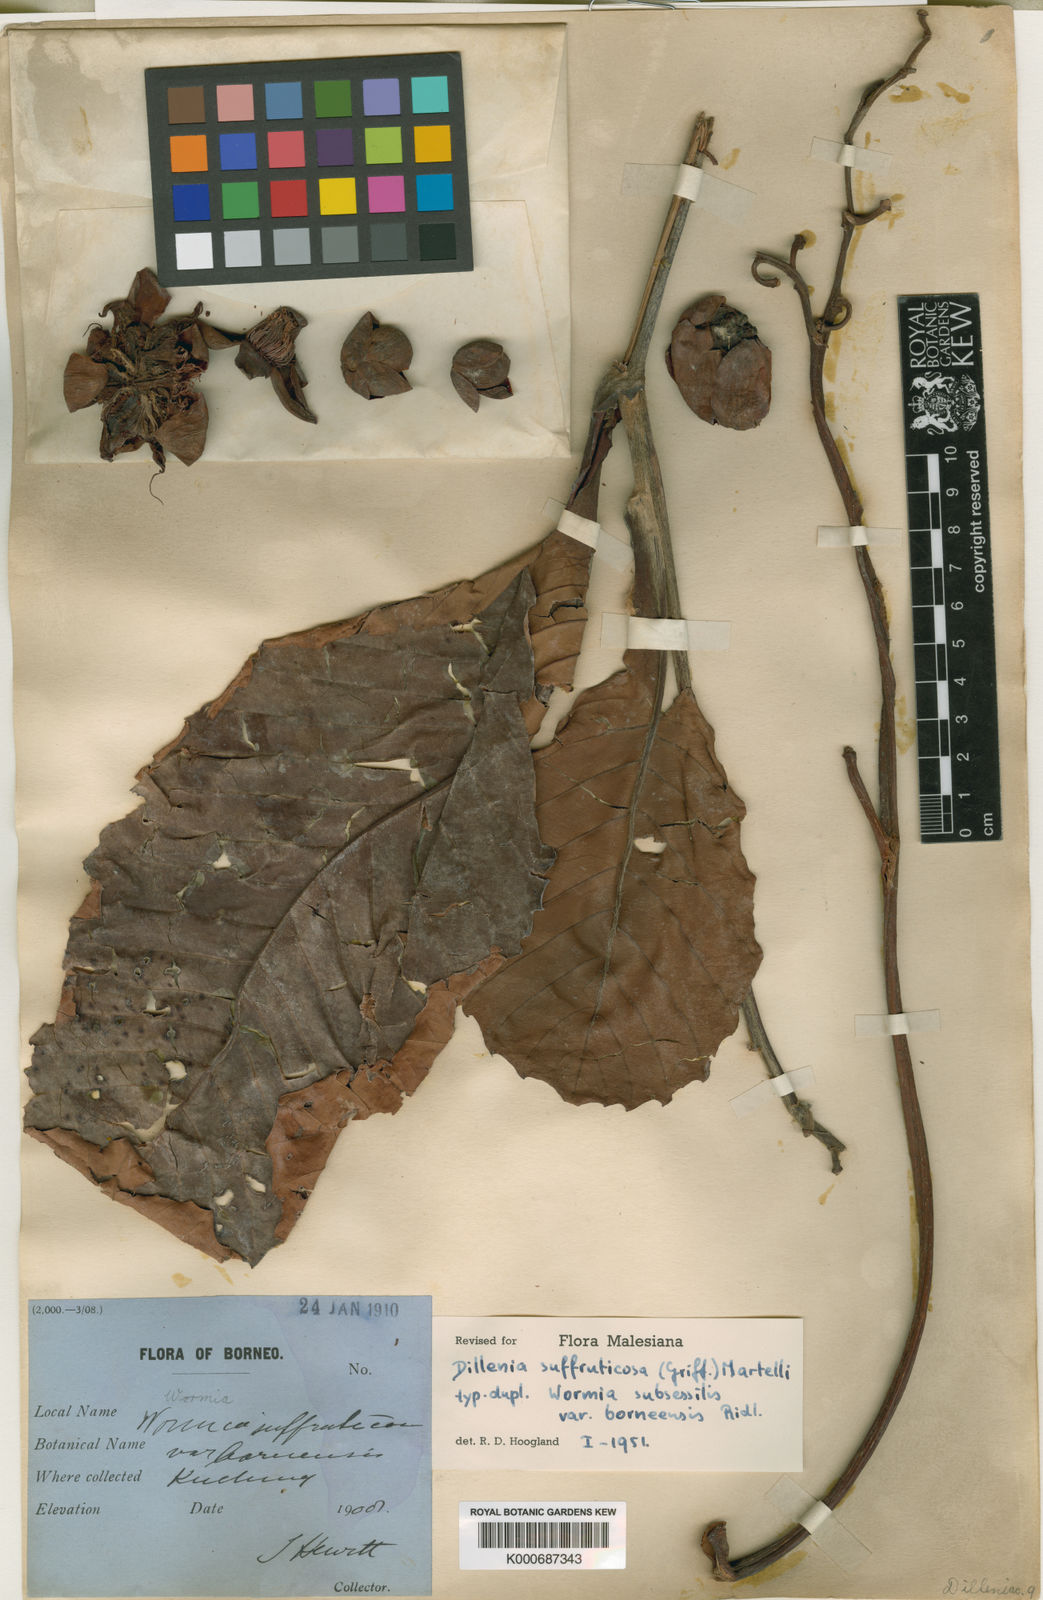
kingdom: Plantae
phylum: Tracheophyta
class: Magnoliopsida
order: Dilleniales
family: Dilleniaceae
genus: Dillenia
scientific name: Dillenia suffruticosa
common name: Shrubby dillenia
